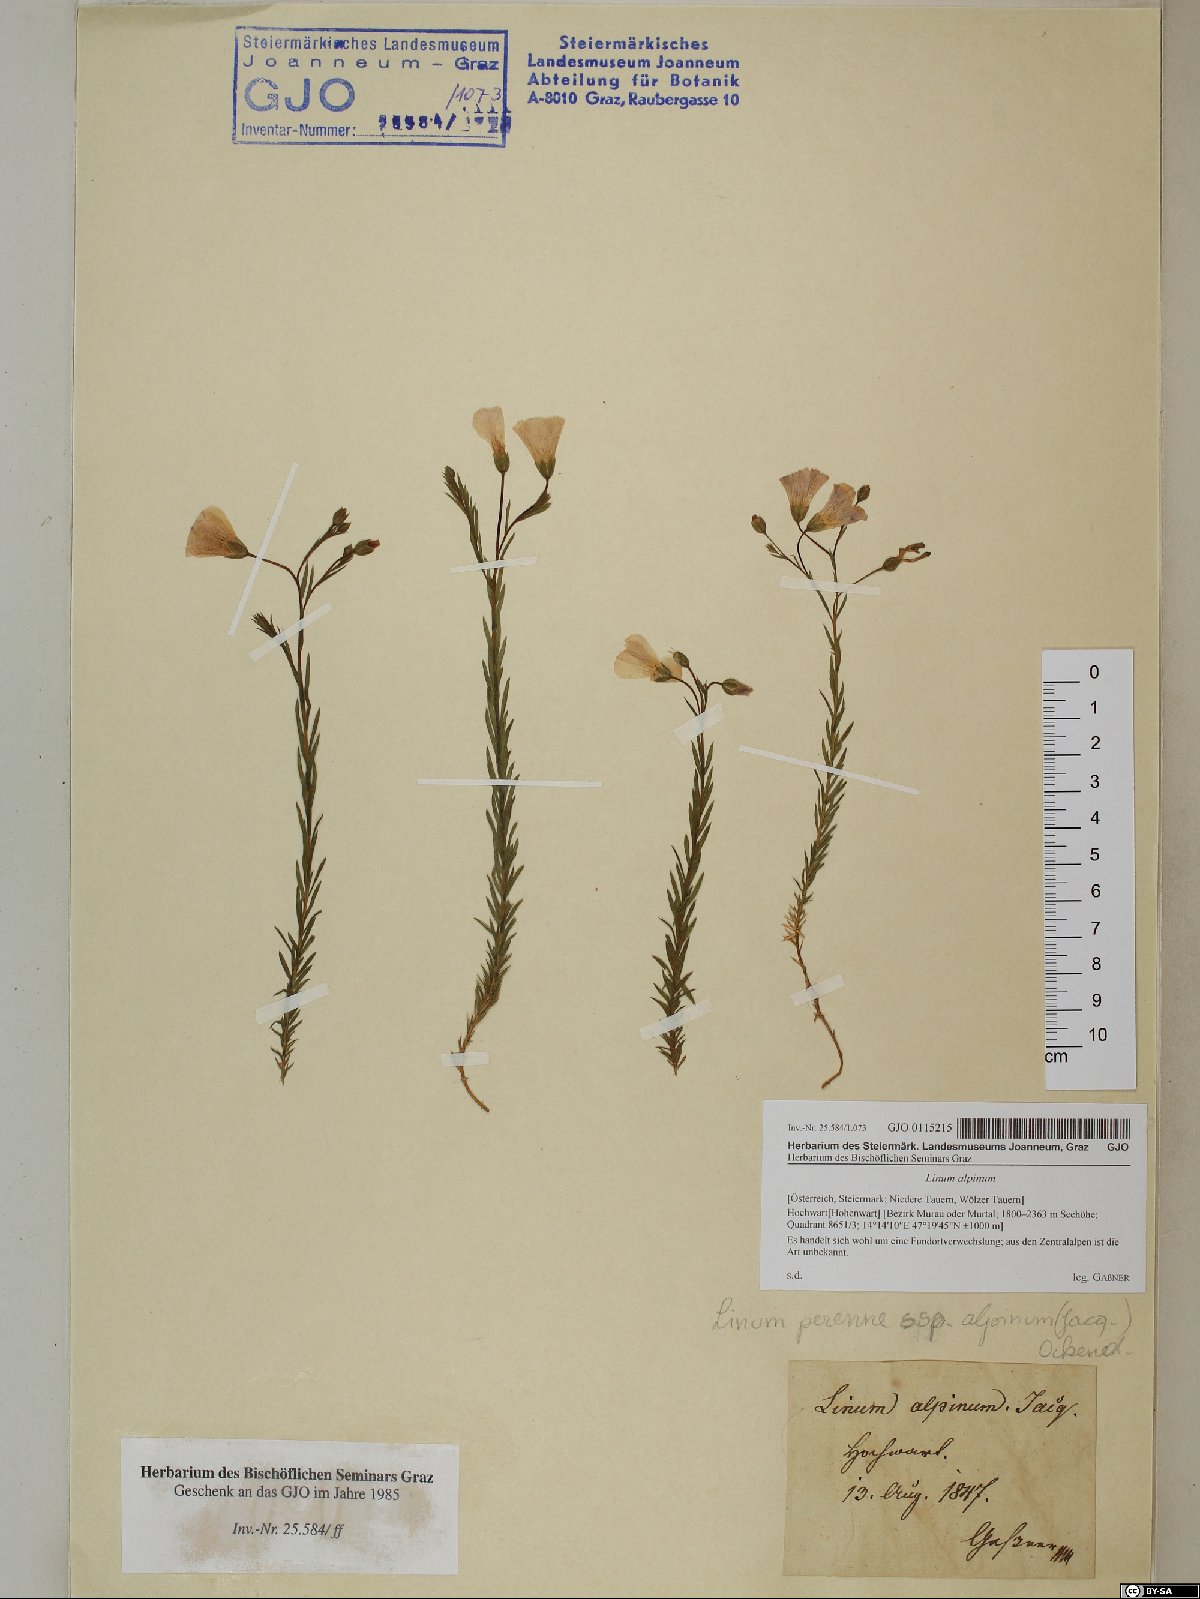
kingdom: Plantae
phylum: Tracheophyta
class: Magnoliopsida
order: Malpighiales
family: Linaceae
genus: Linum
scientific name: Linum alpinum
